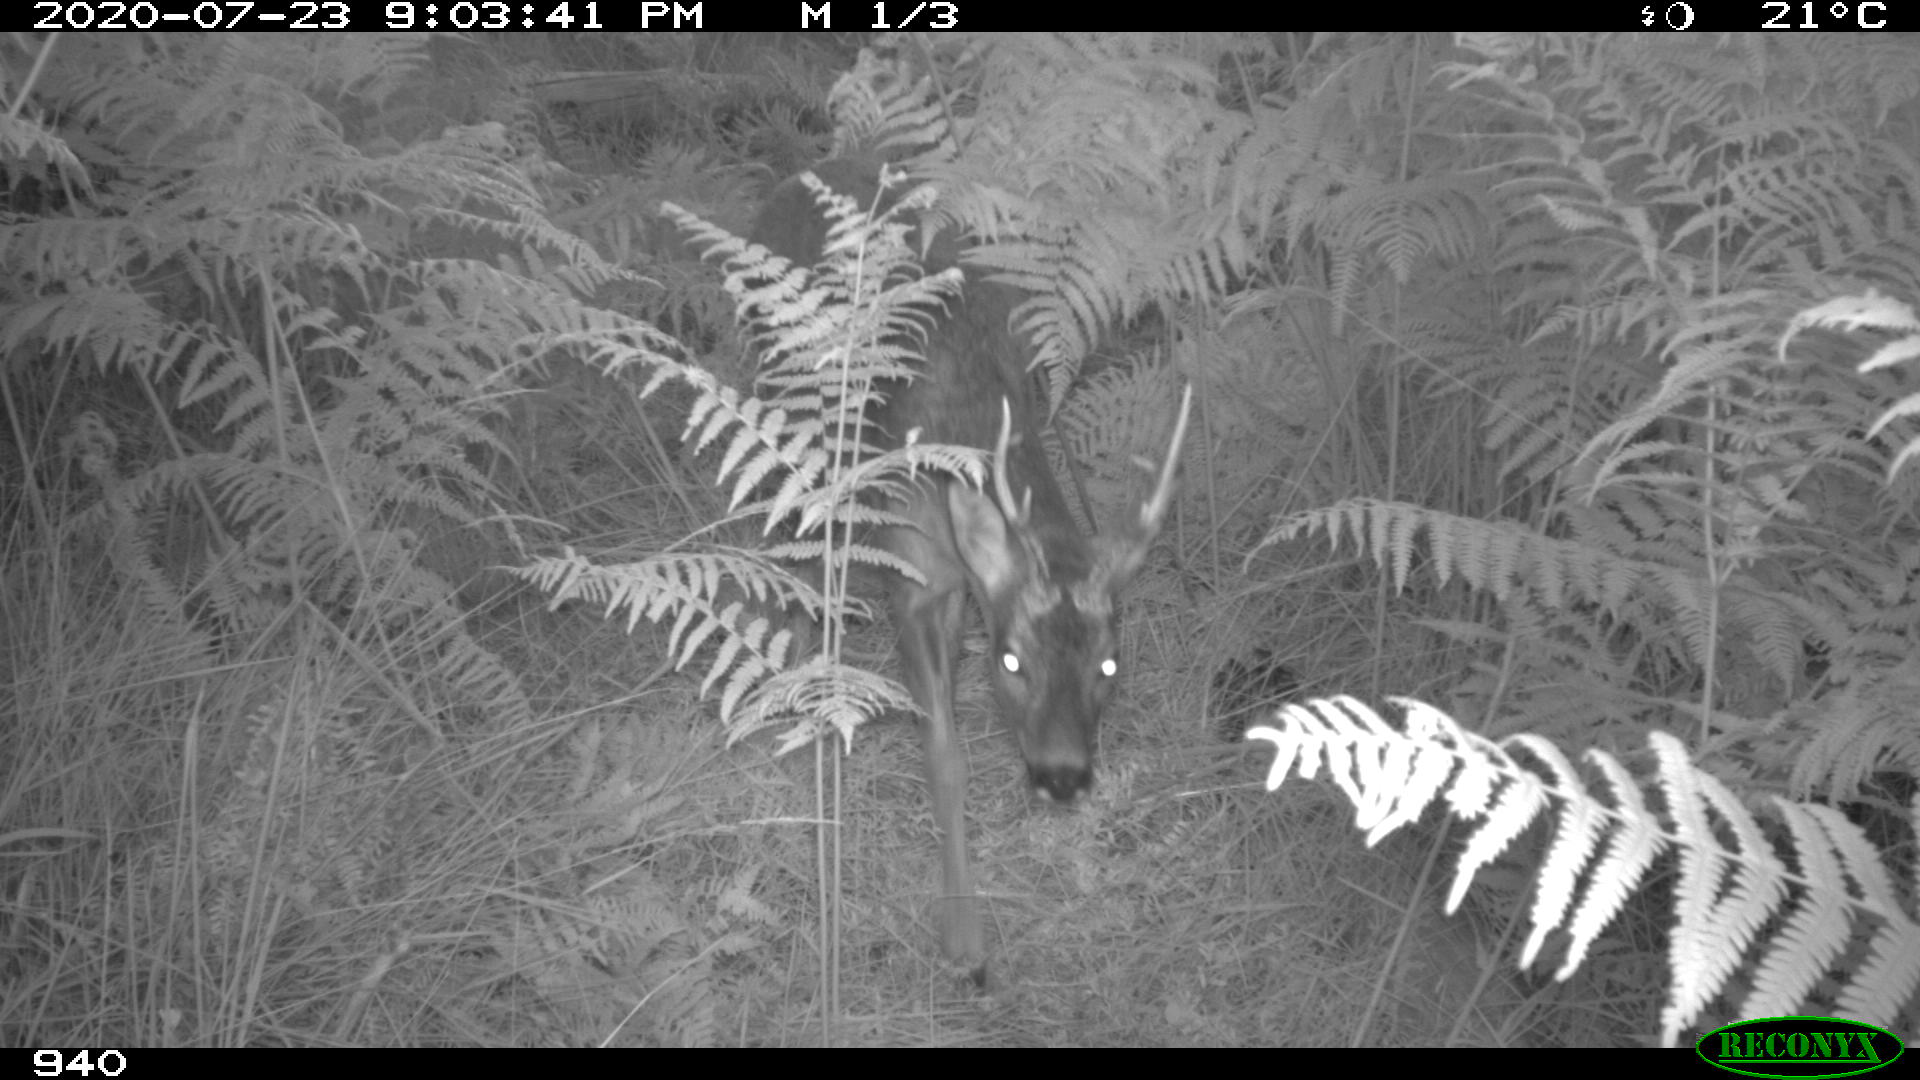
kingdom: Animalia
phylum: Chordata
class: Mammalia
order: Artiodactyla
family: Cervidae
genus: Capreolus
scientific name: Capreolus capreolus
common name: Western roe deer
